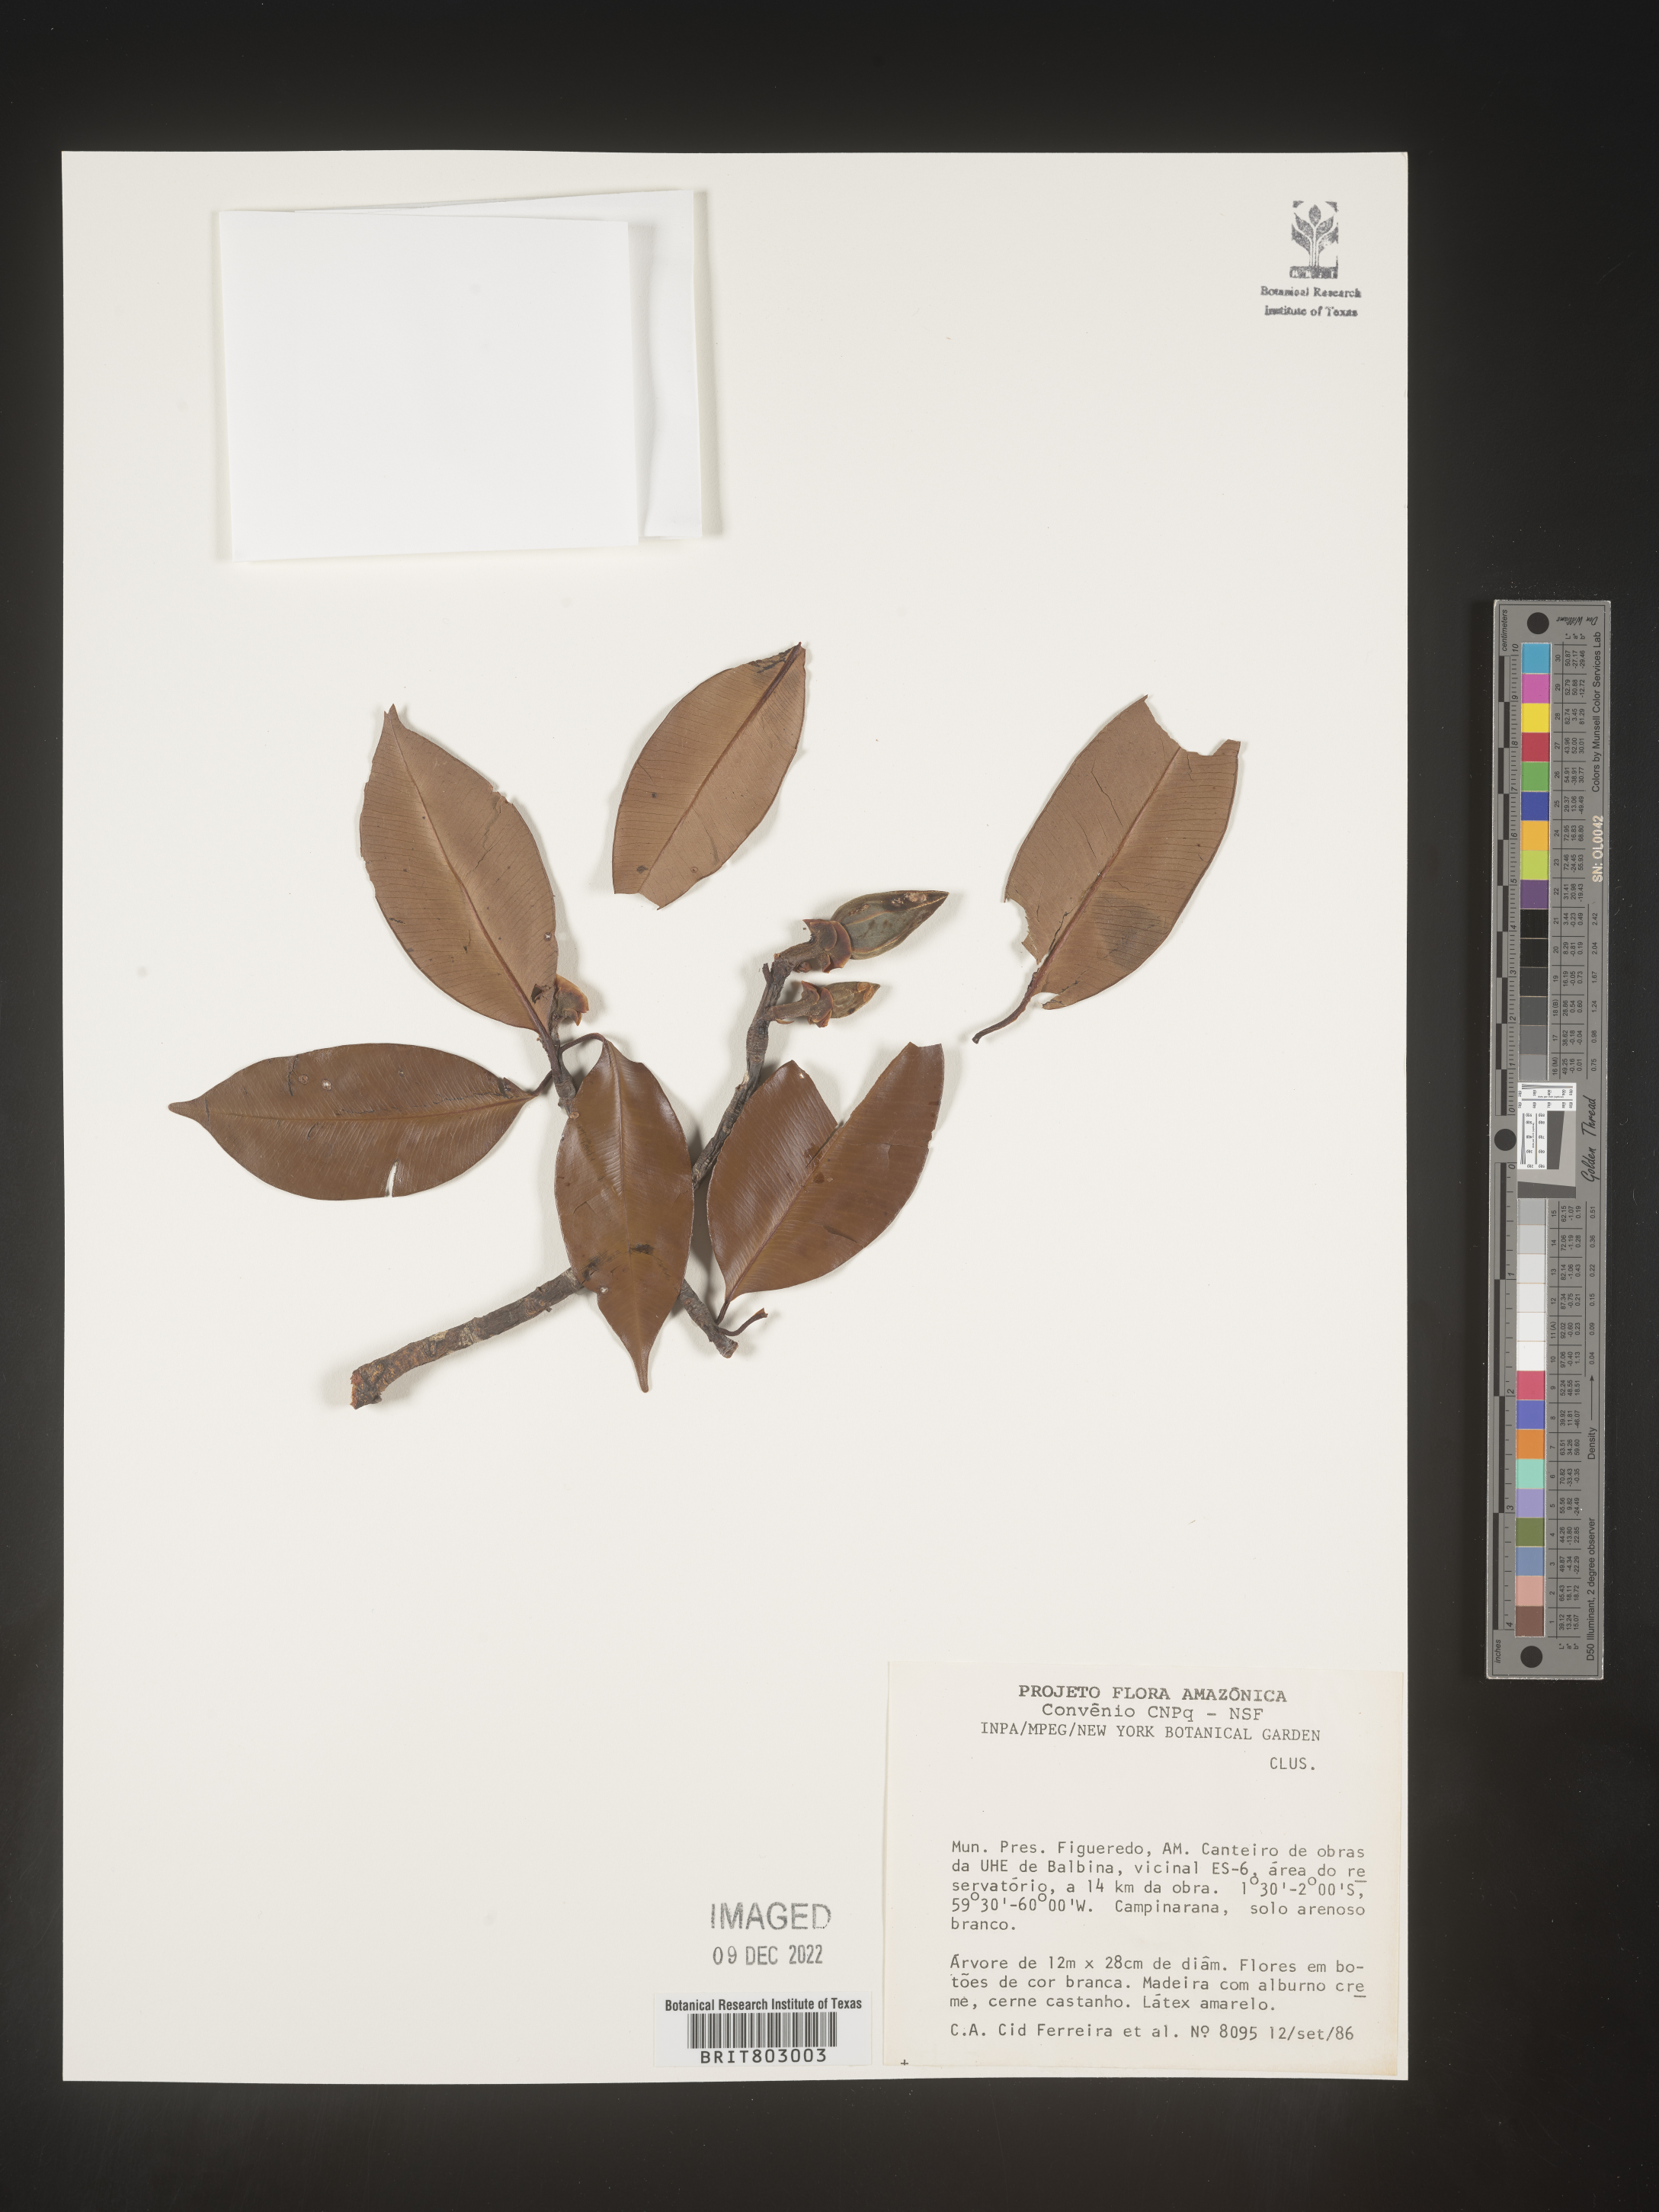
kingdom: Plantae
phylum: Tracheophyta
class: Magnoliopsida
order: Malpighiales
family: Clusiaceae
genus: Moronobea
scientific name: Moronobea
